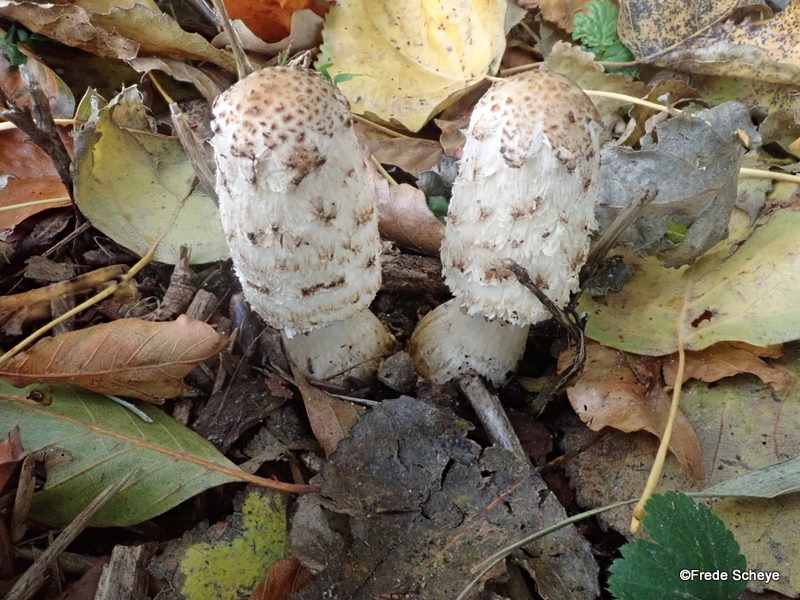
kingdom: Fungi
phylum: Basidiomycota
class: Agaricomycetes
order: Agaricales
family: Agaricaceae
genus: Coprinus
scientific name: Coprinus comatus
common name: stor parykhat
